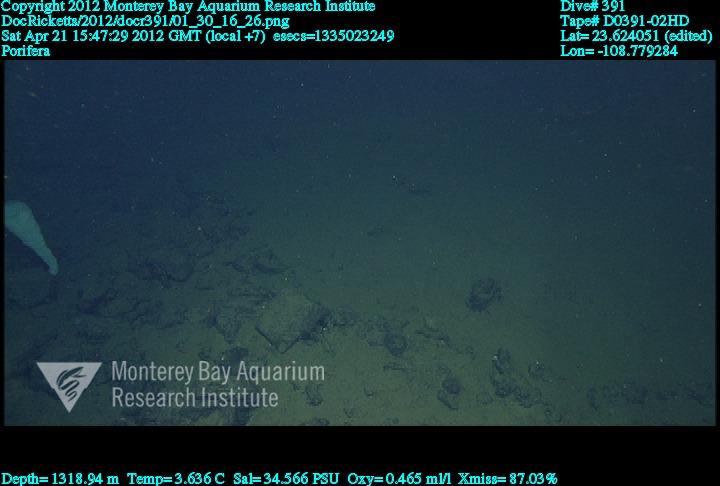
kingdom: Animalia
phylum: Porifera
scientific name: Porifera
